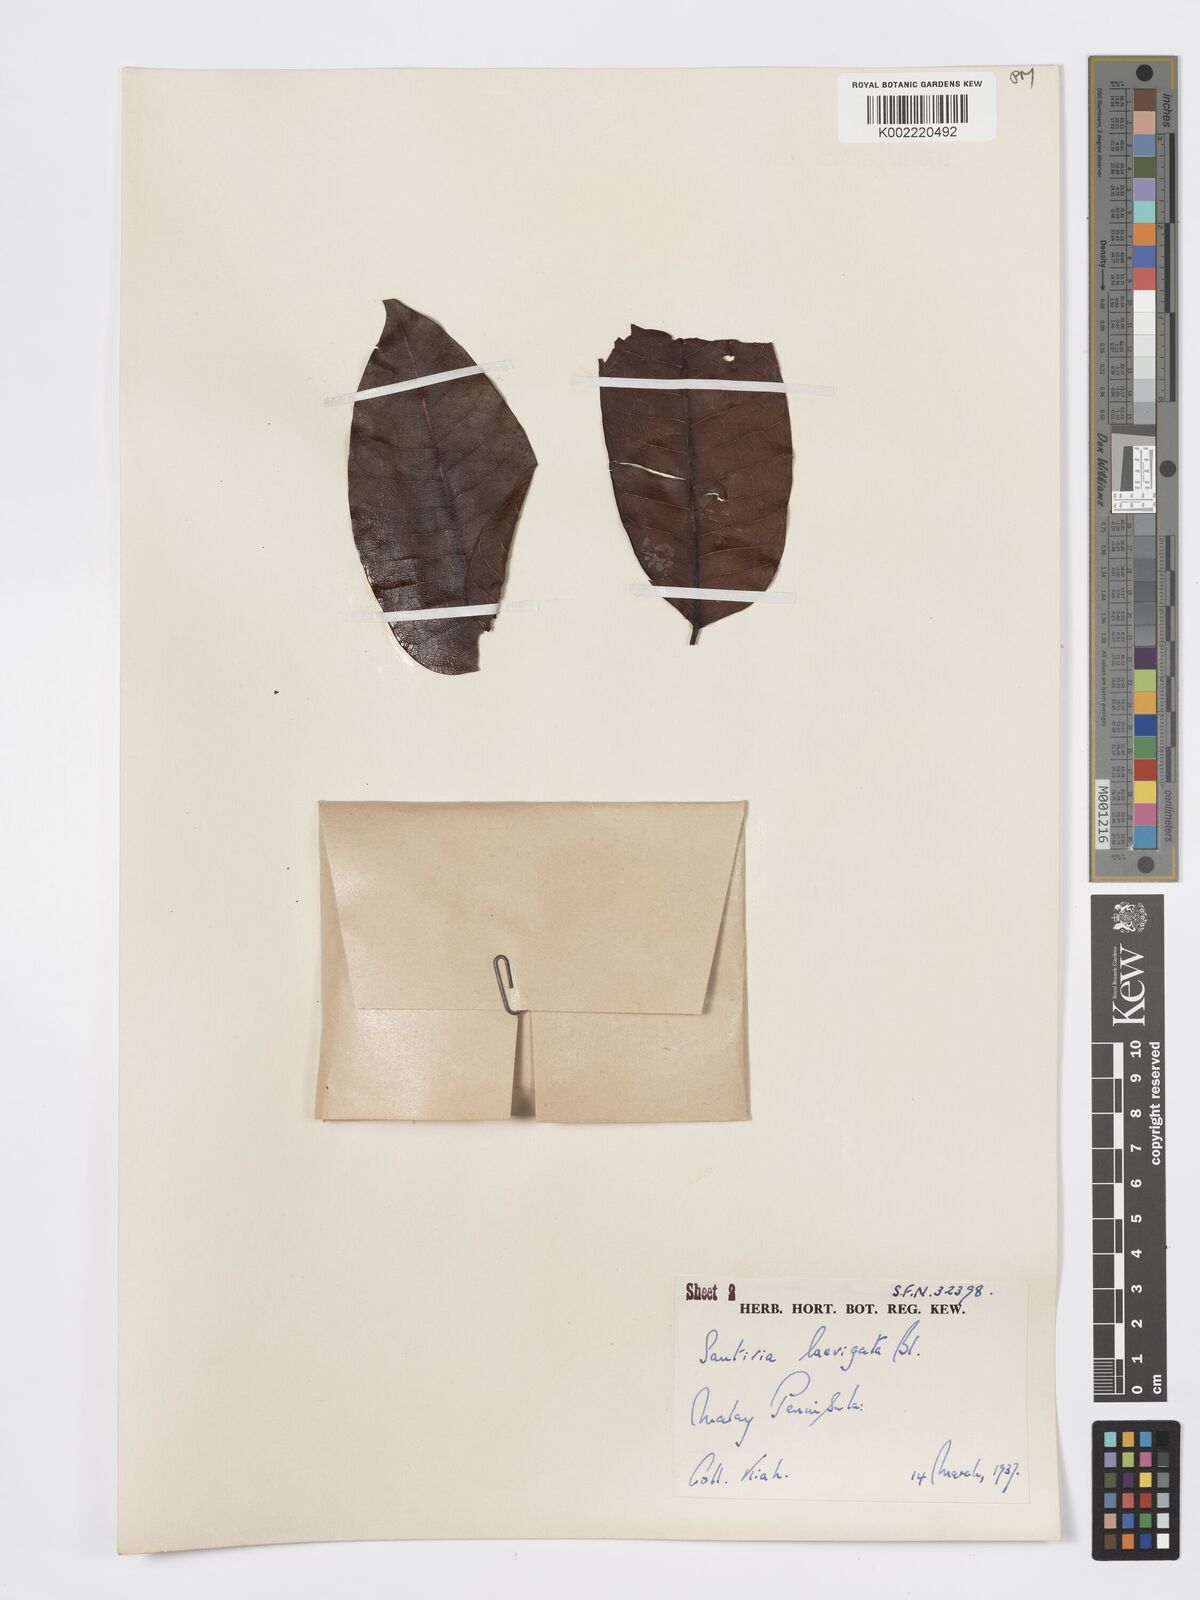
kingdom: Plantae
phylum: Tracheophyta
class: Magnoliopsida
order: Sapindales
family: Burseraceae
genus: Santiria
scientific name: Santiria laevigata
